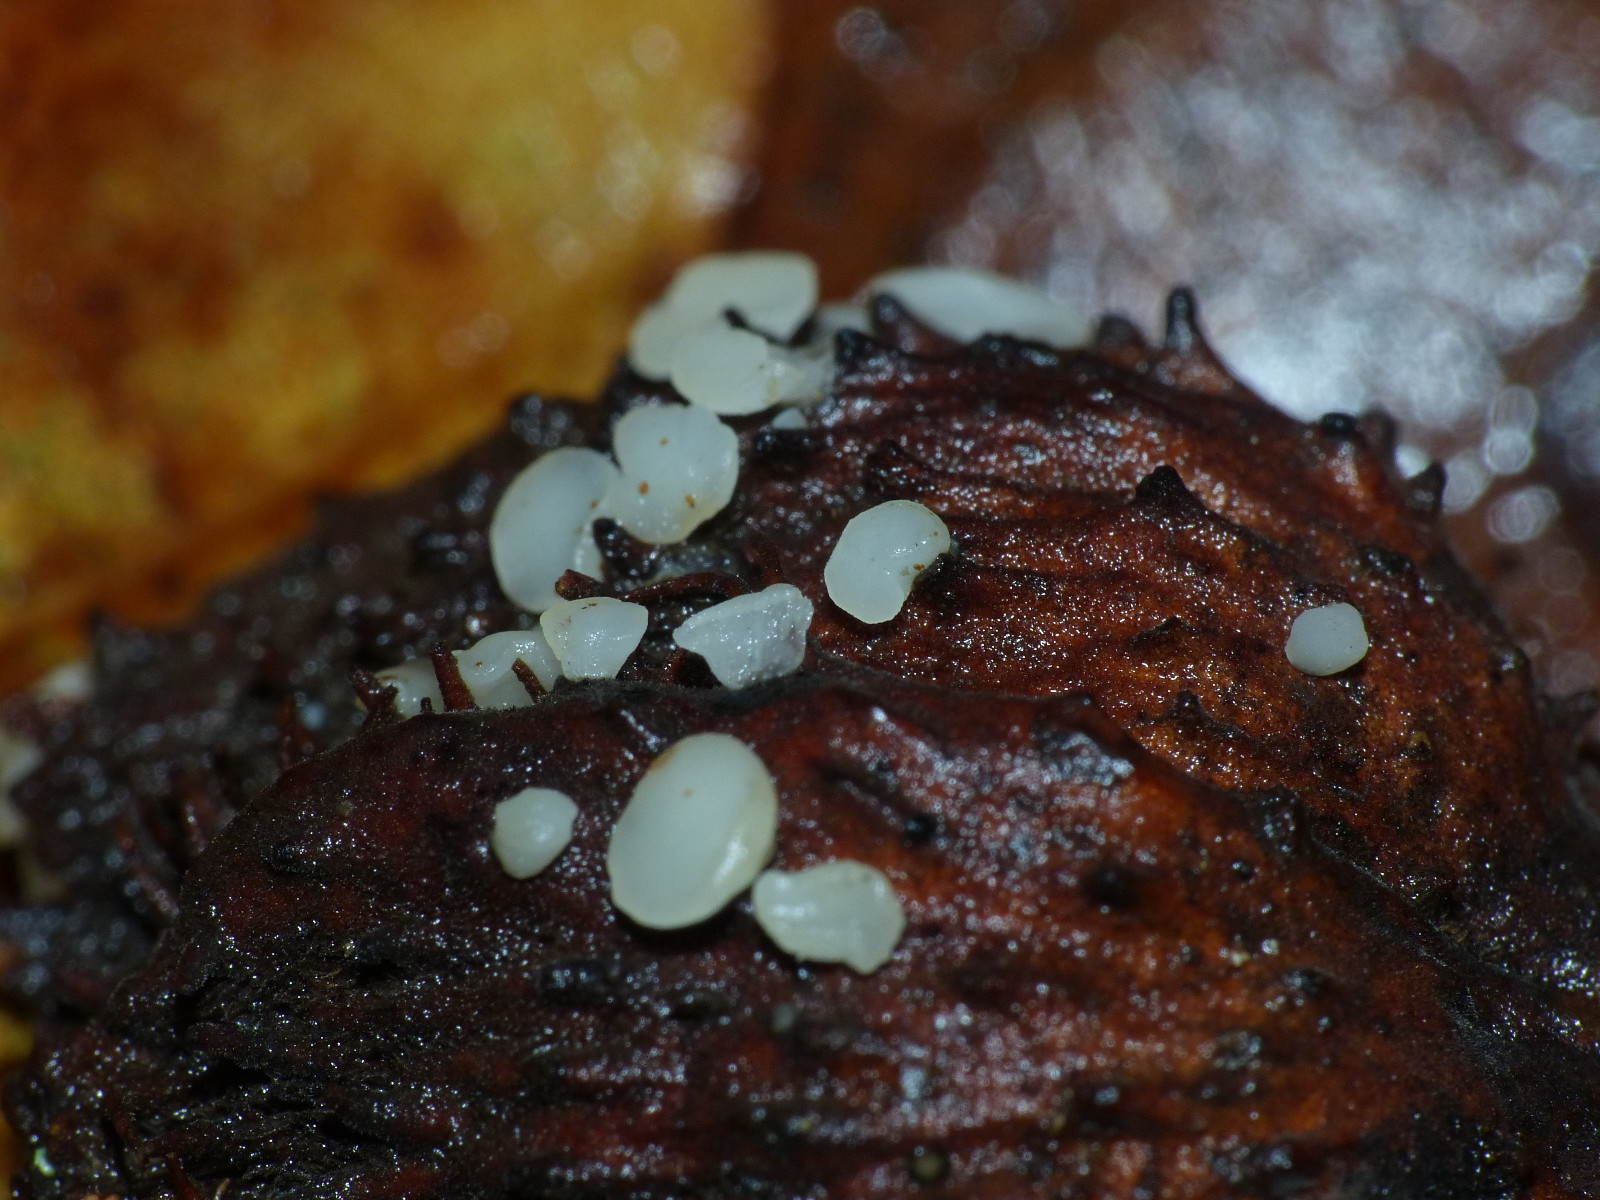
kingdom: Fungi
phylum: Ascomycota
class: Leotiomycetes
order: Helotiales
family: Helotiaceae
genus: Hymenoscyphus
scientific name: Hymenoscyphus fagineus
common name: vellugtende stilkskive
